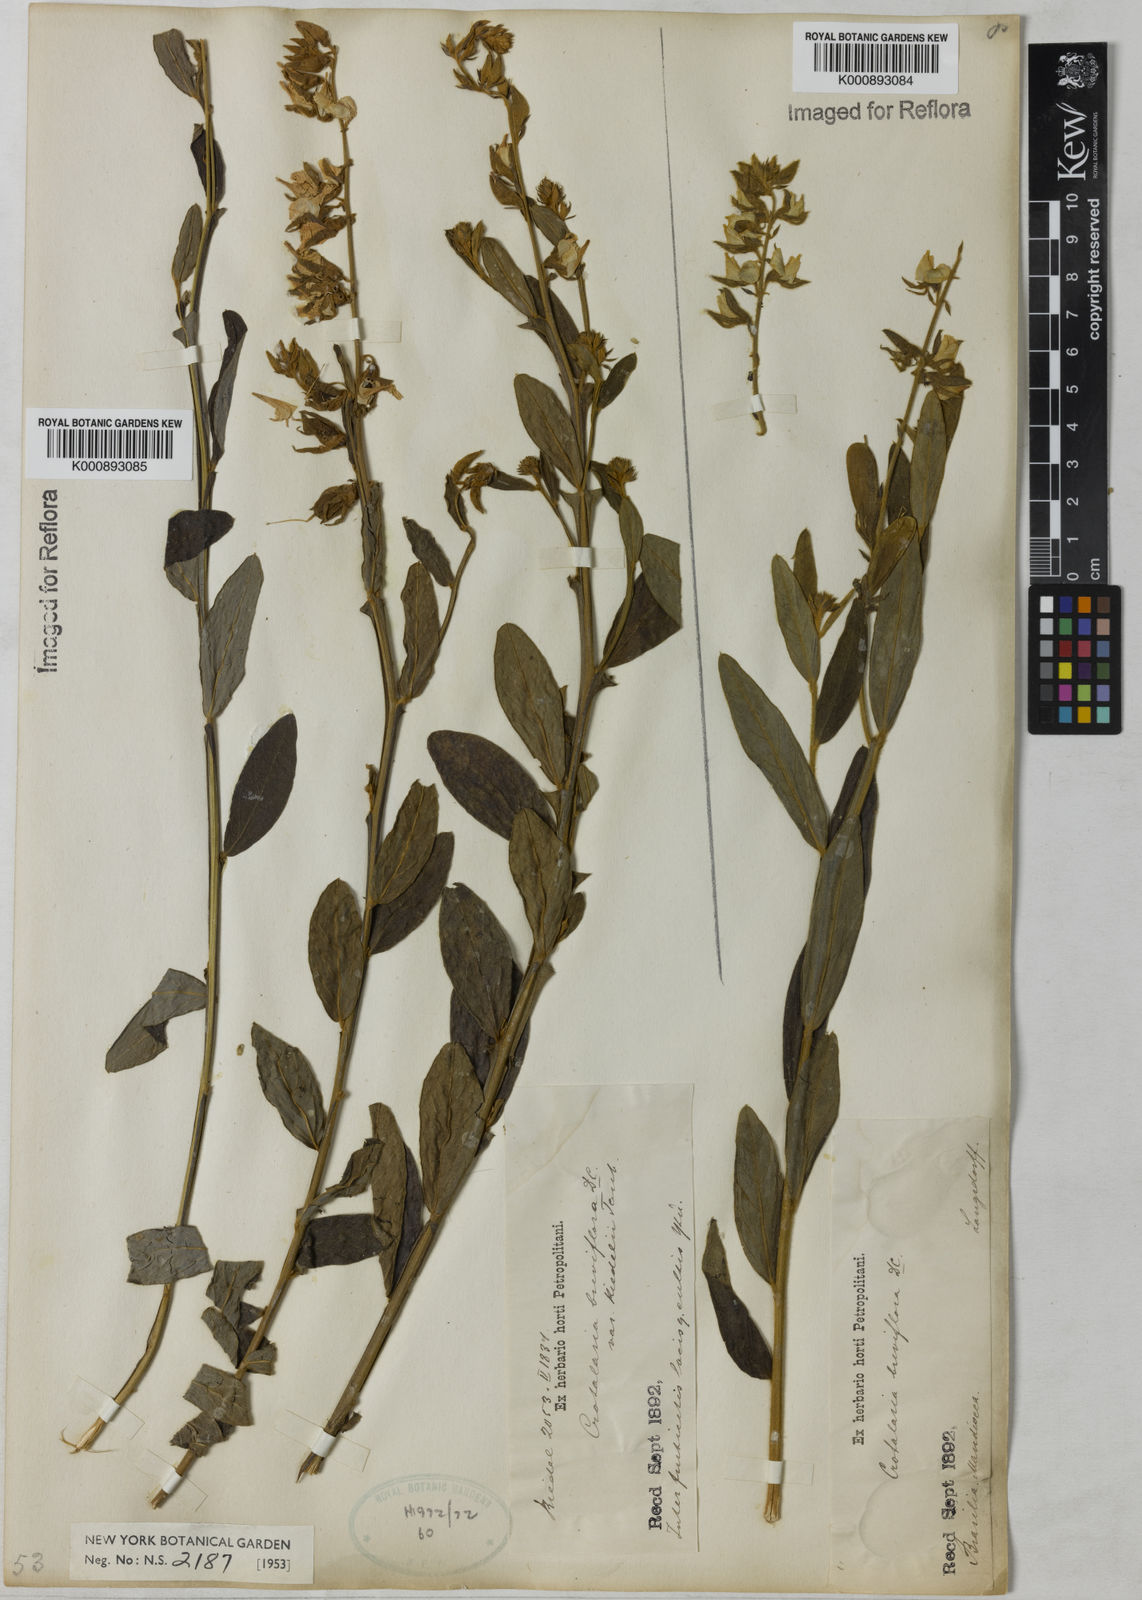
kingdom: Plantae
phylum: Tracheophyta
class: Magnoliopsida
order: Fabales
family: Fabaceae
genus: Crotalaria
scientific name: Crotalaria breviflora
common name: Short-flower crotalaria
